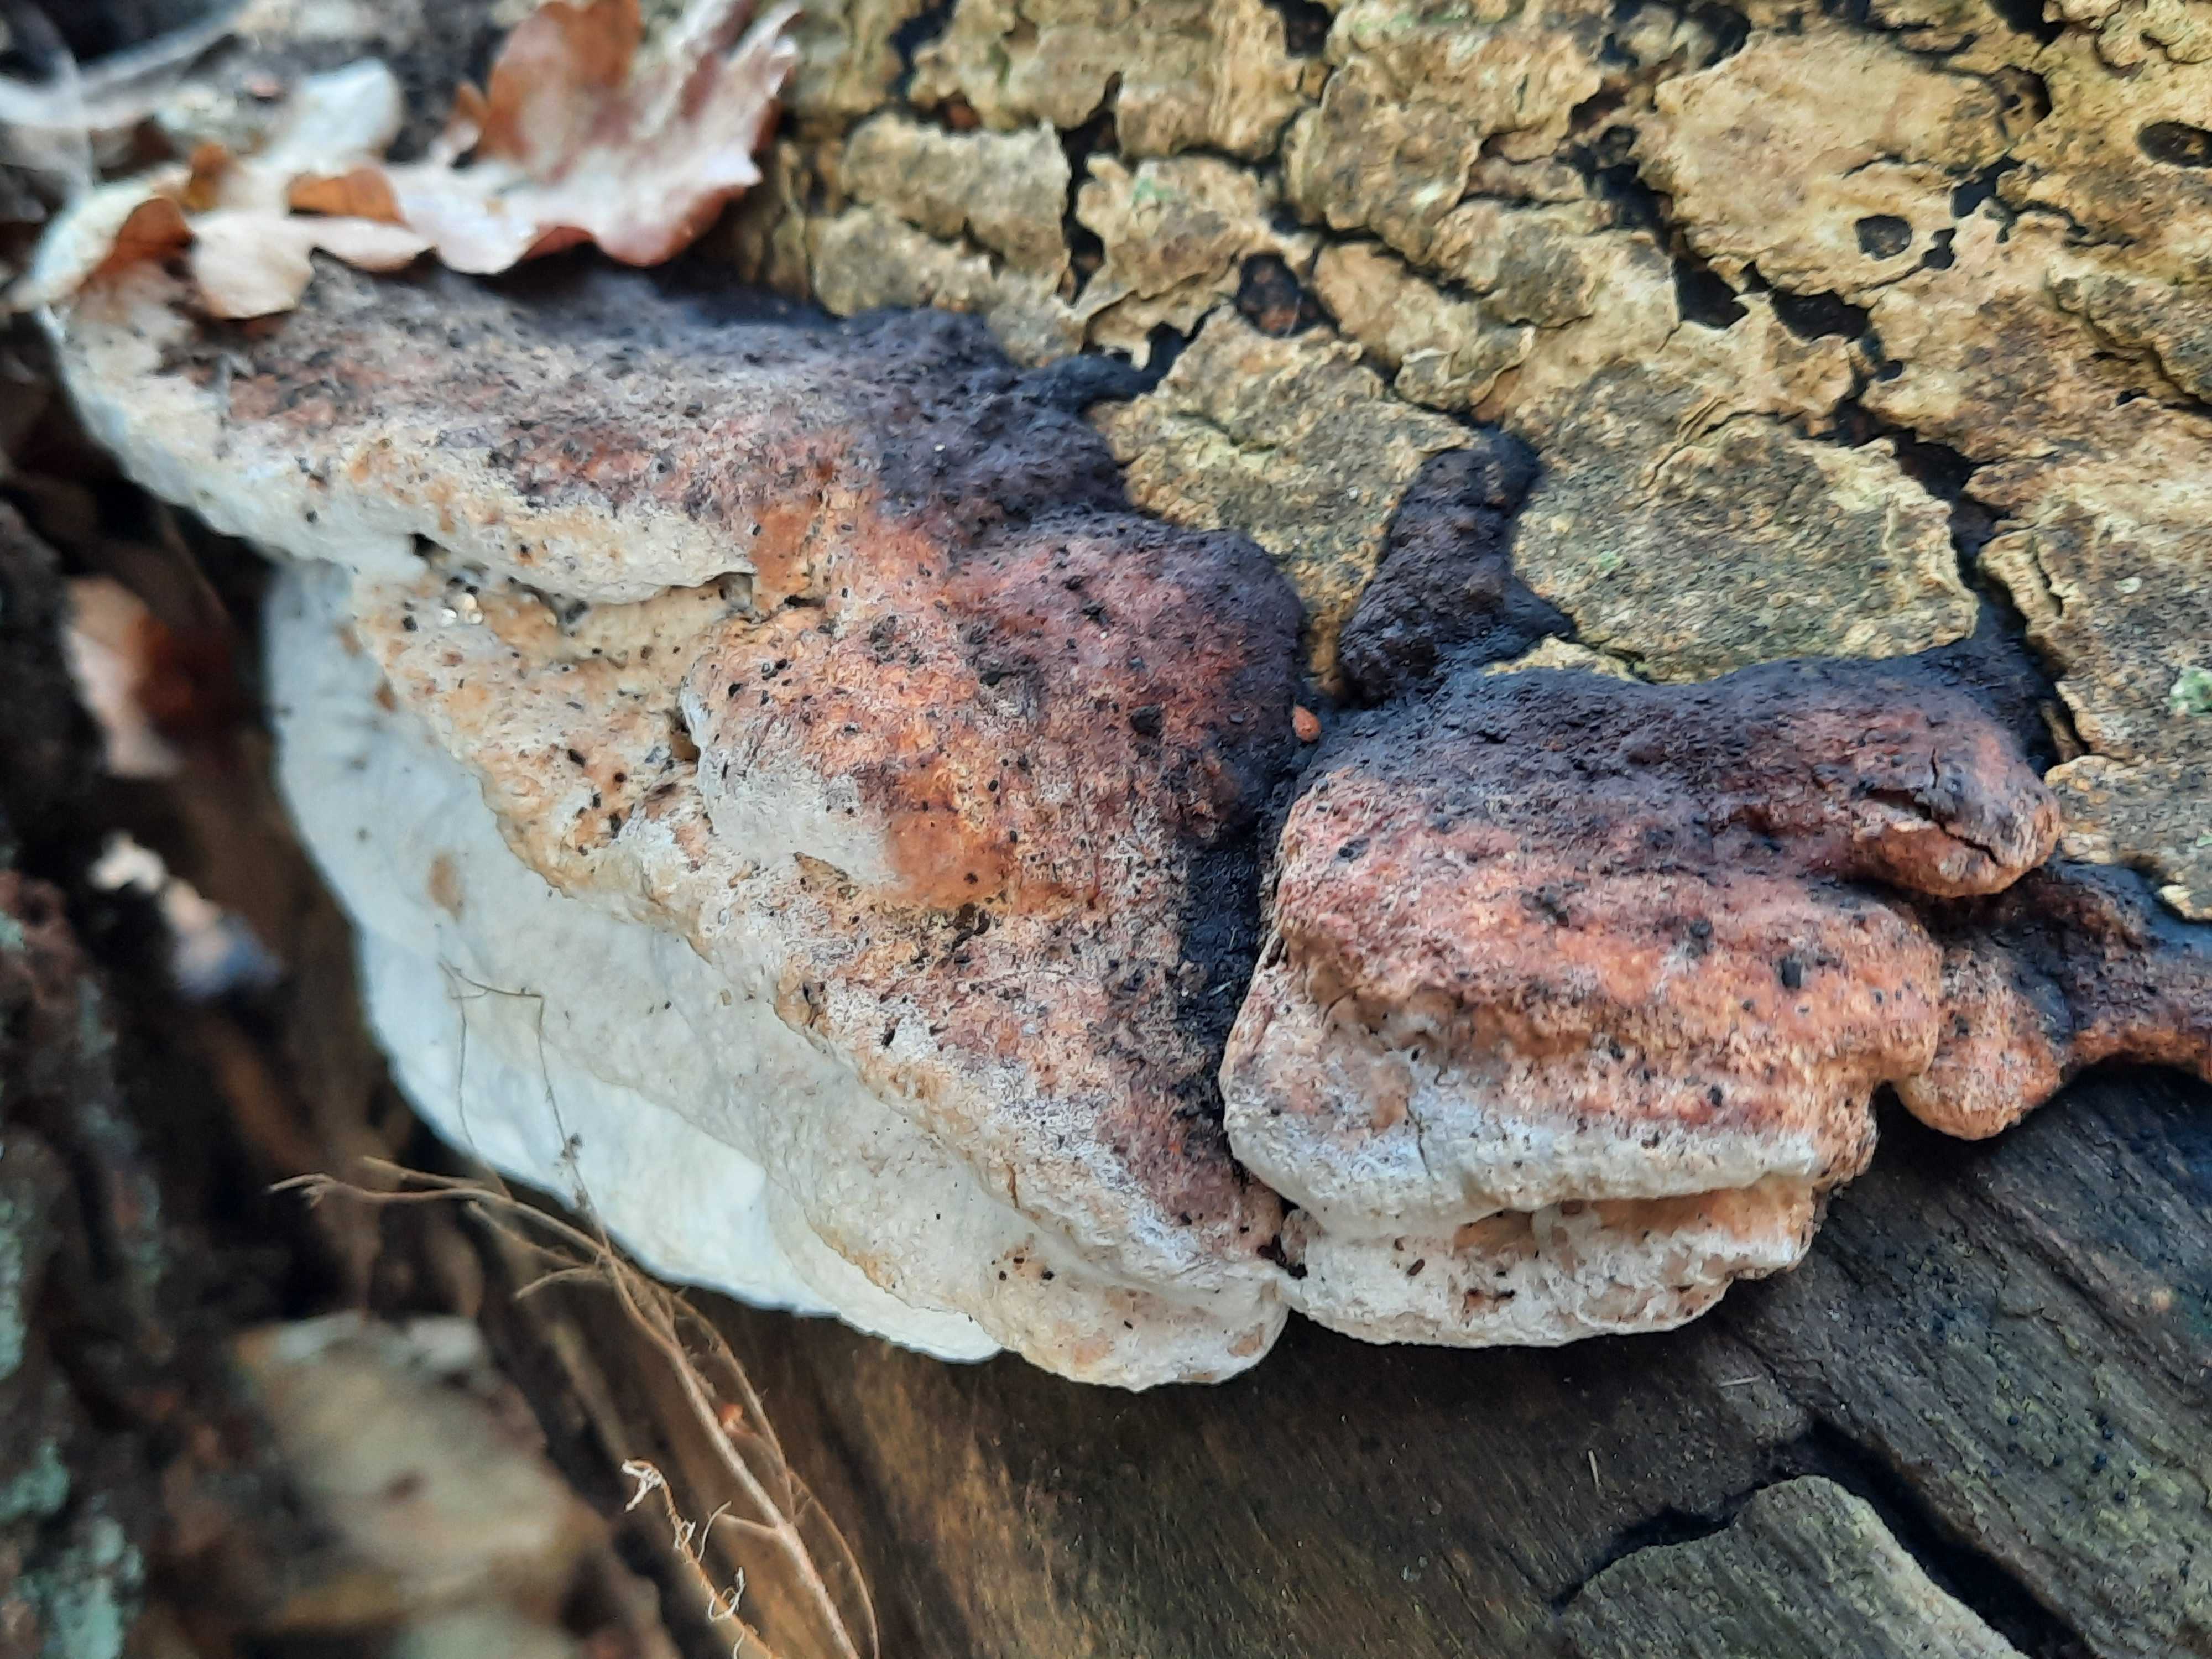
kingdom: Fungi
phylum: Basidiomycota
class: Agaricomycetes
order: Polyporales
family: Incrustoporiaceae
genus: Skeletocutis
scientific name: Skeletocutis nemoralis
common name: stor krystalporesvamp
